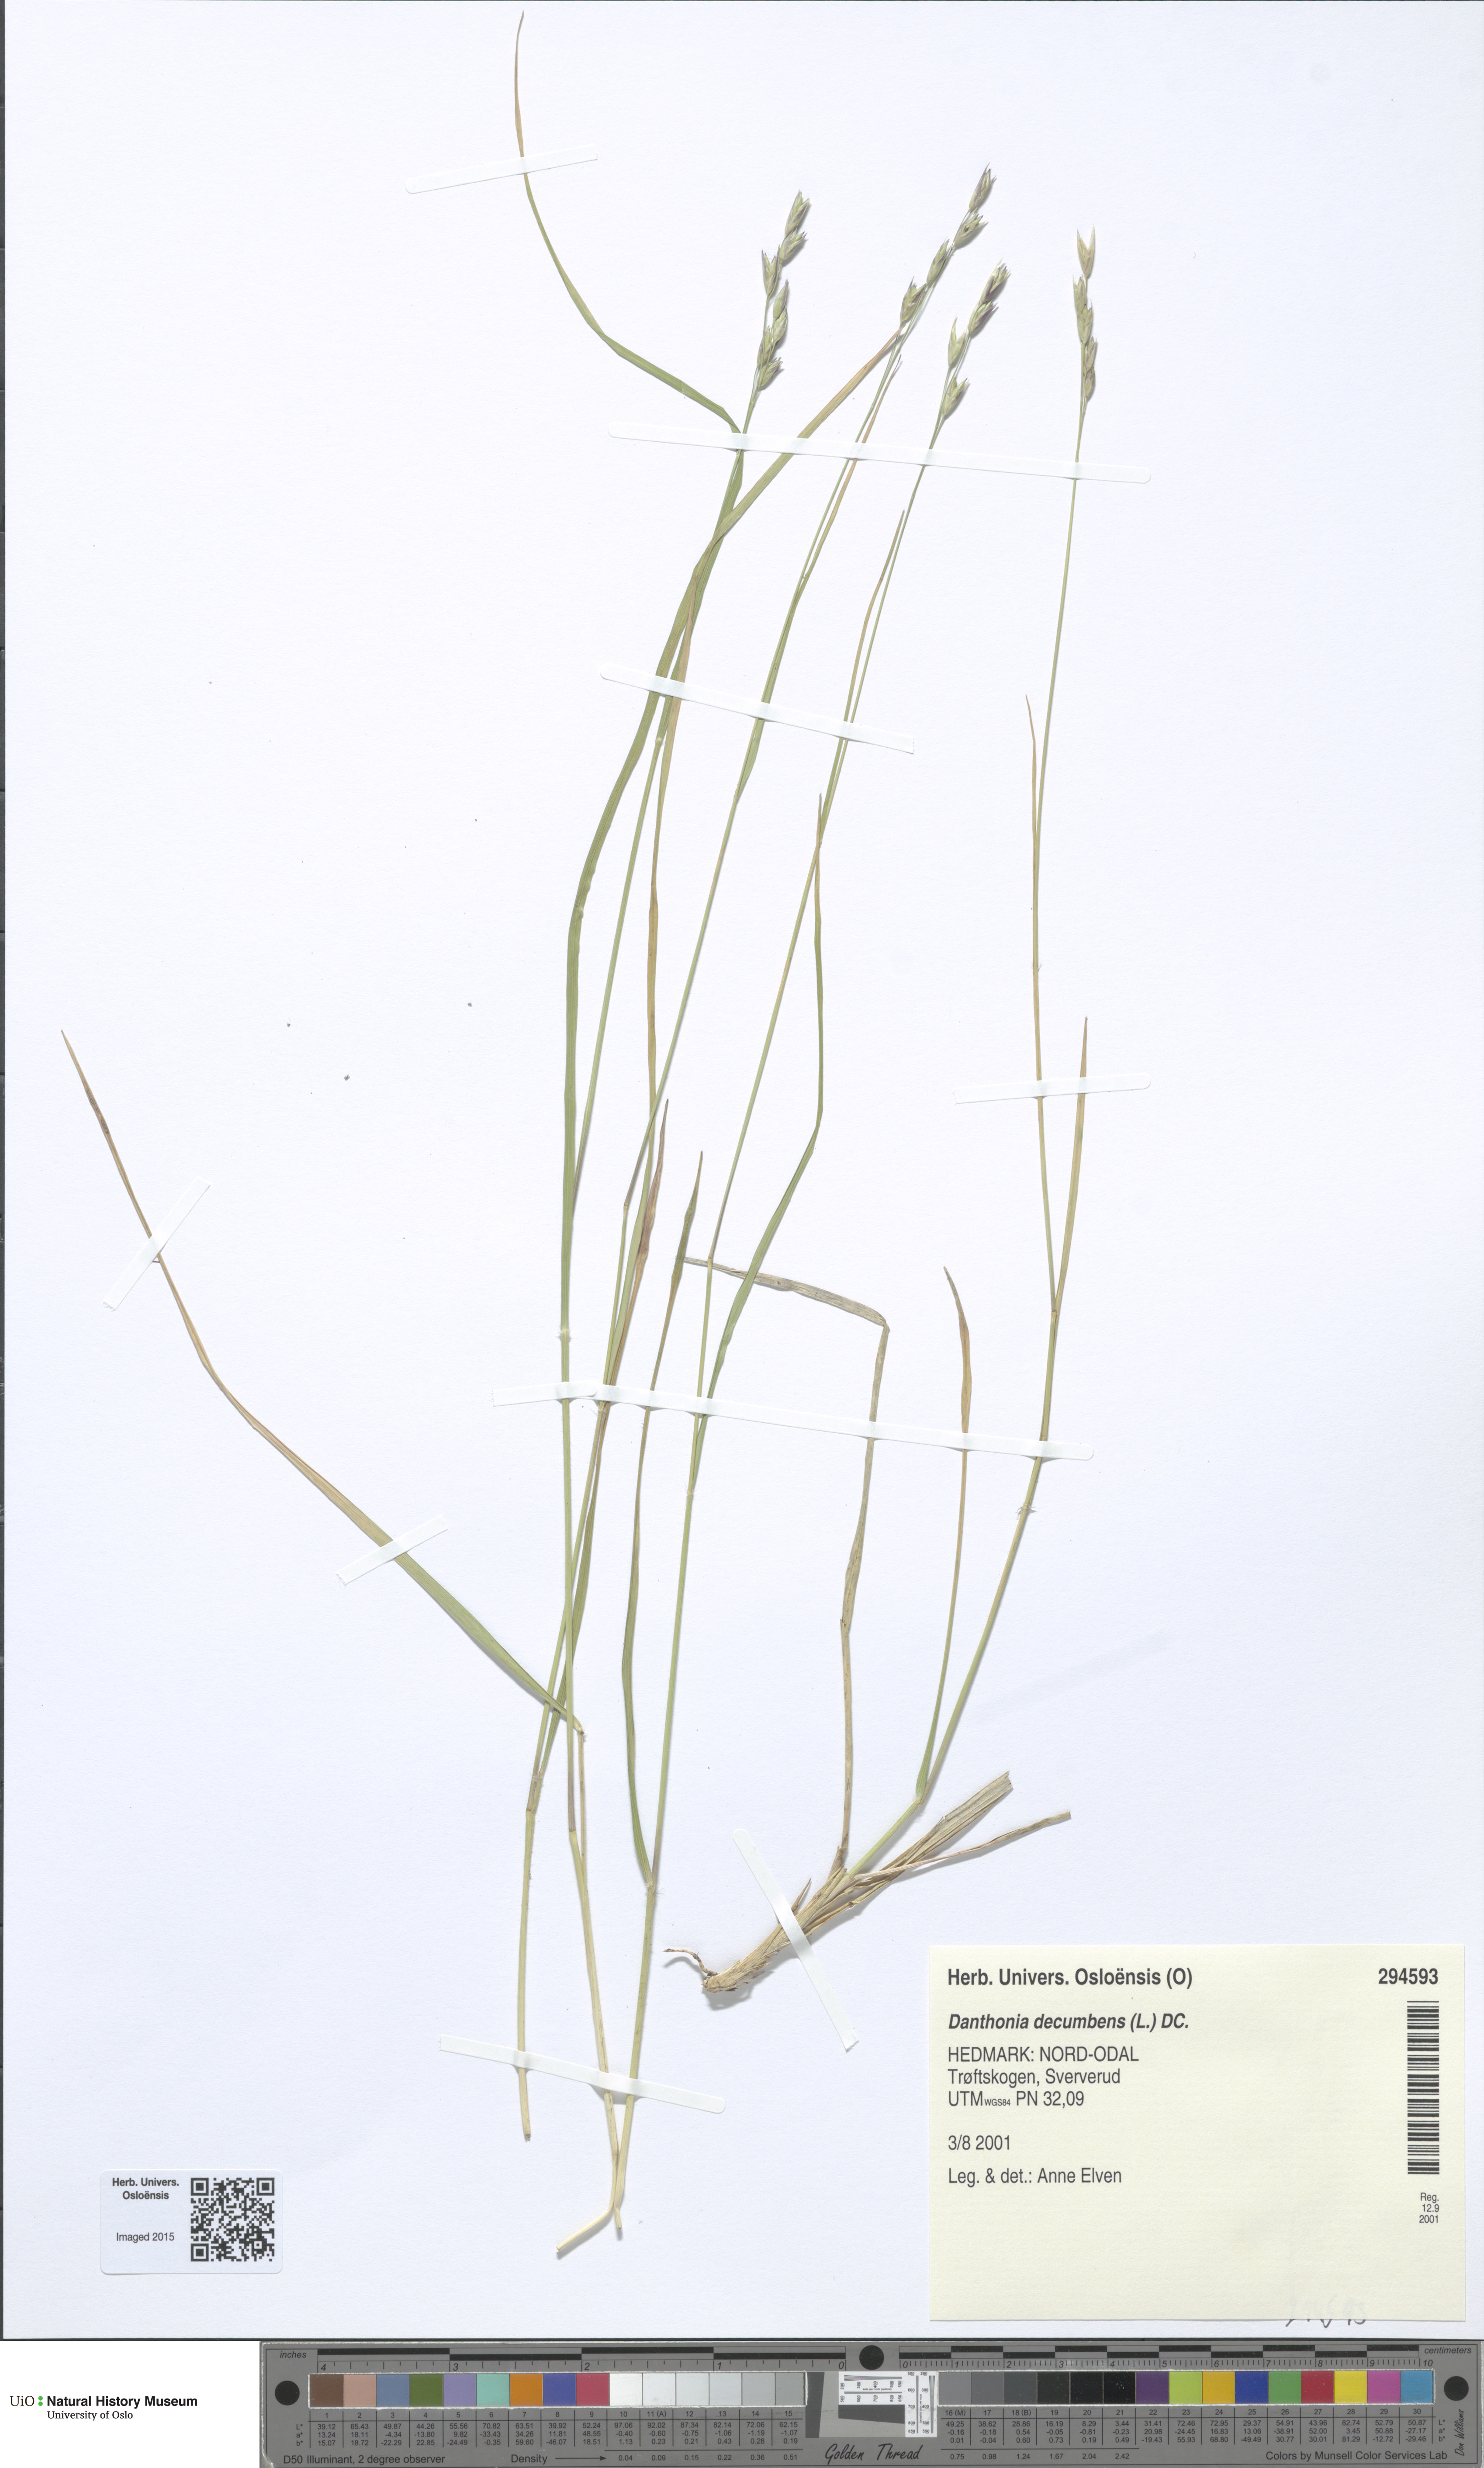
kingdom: Plantae
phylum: Tracheophyta
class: Liliopsida
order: Poales
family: Poaceae
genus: Danthonia
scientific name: Danthonia decumbens
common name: Common heathgrass
